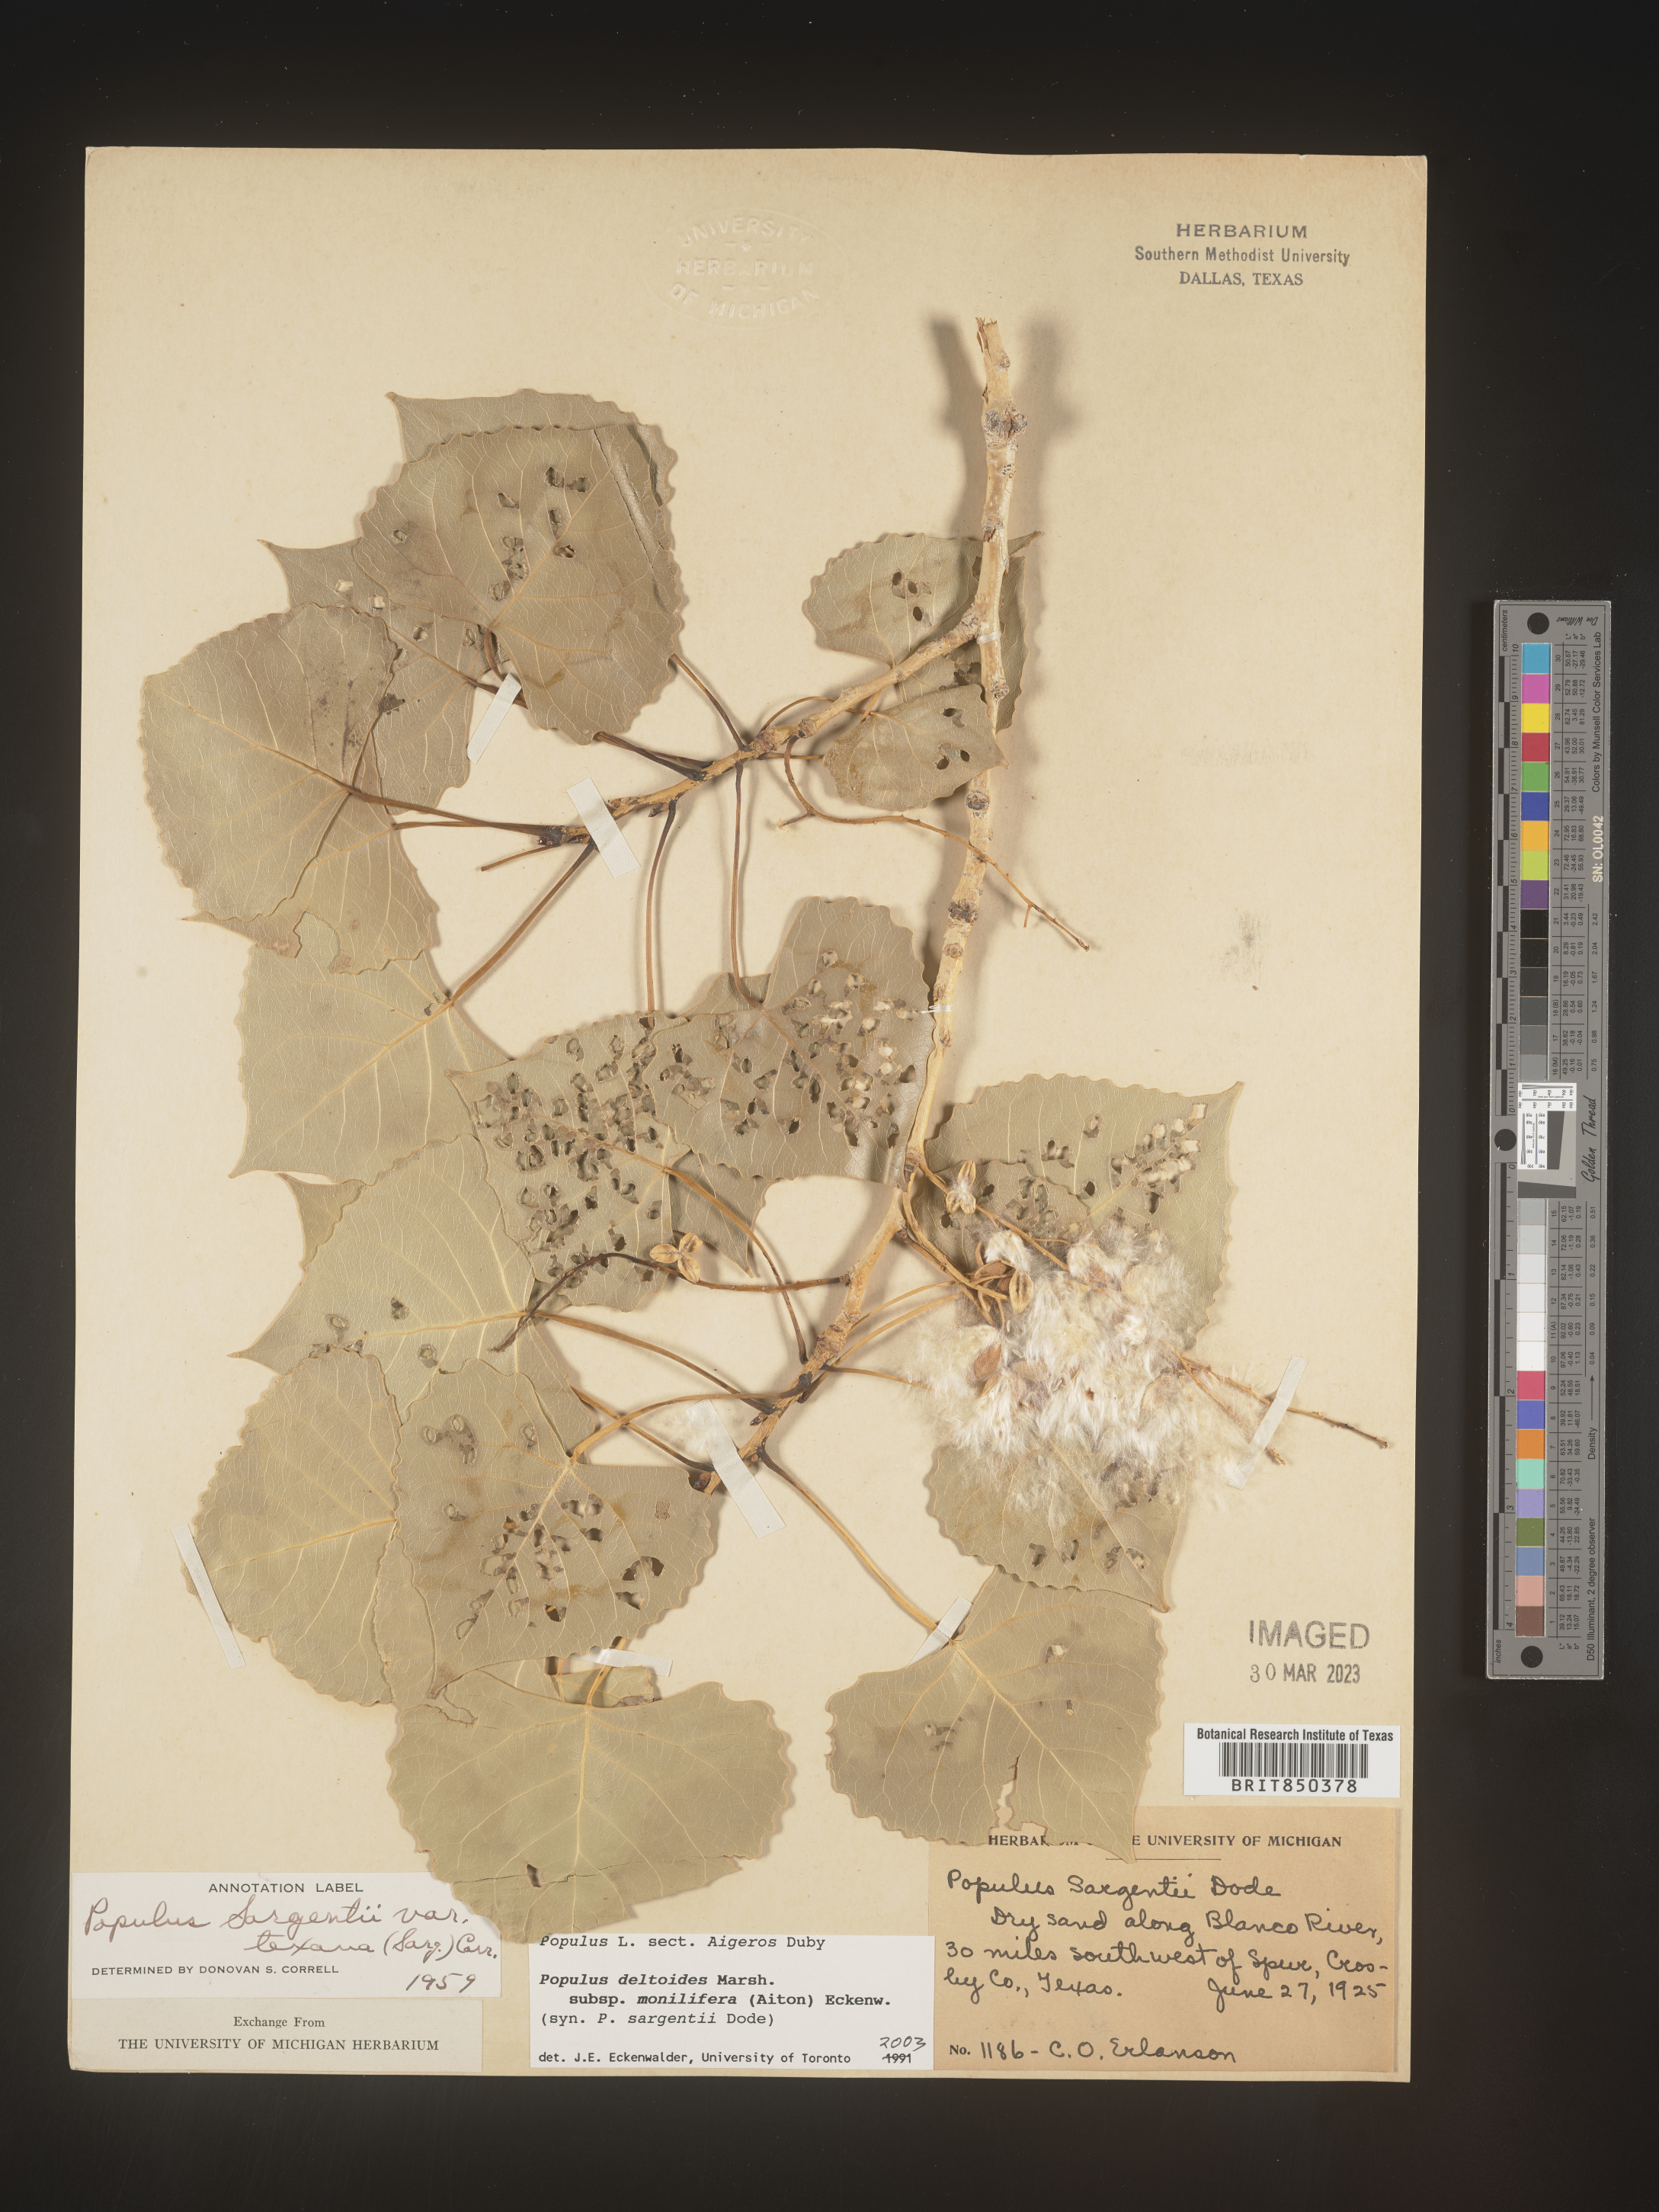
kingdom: Plantae
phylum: Tracheophyta
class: Magnoliopsida
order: Malpighiales
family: Salicaceae
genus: Populus
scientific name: Populus deltoides
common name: Eastern cottonwood
